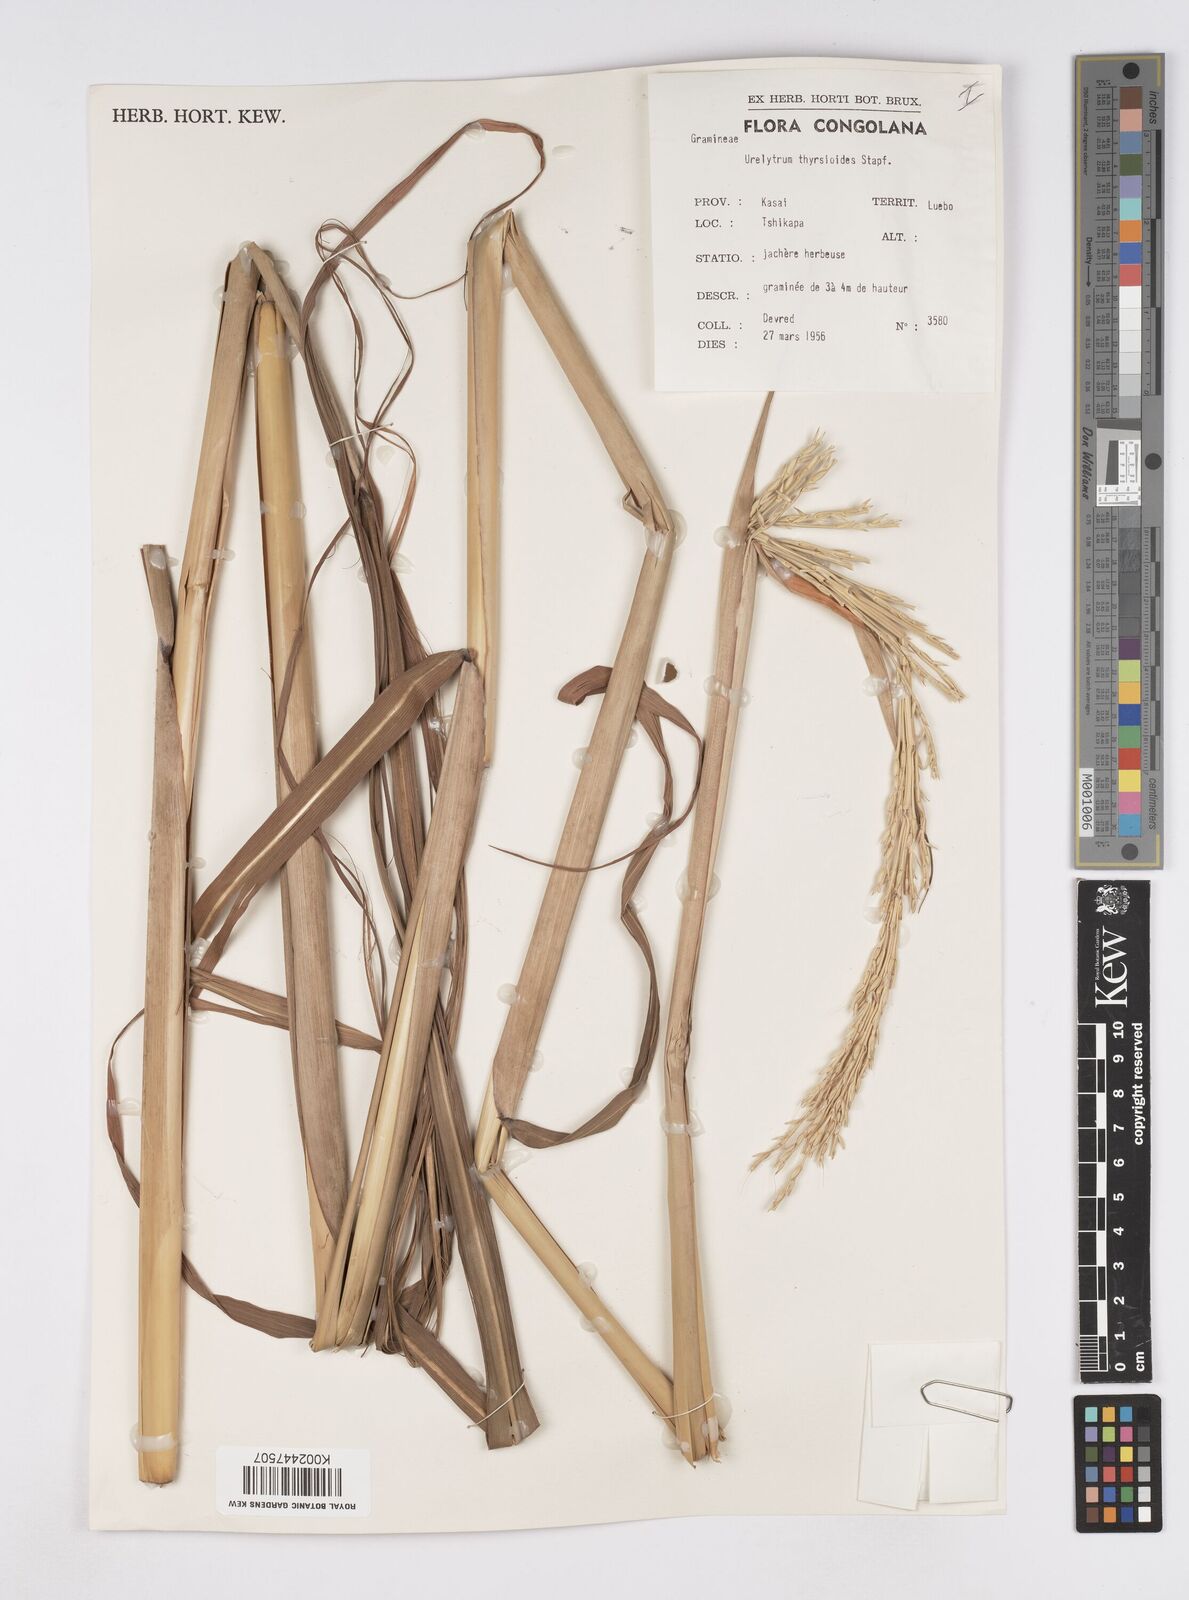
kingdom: Plantae
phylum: Tracheophyta
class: Liliopsida
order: Poales
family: Poaceae
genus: Urelytrum
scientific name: Urelytrum giganteum
